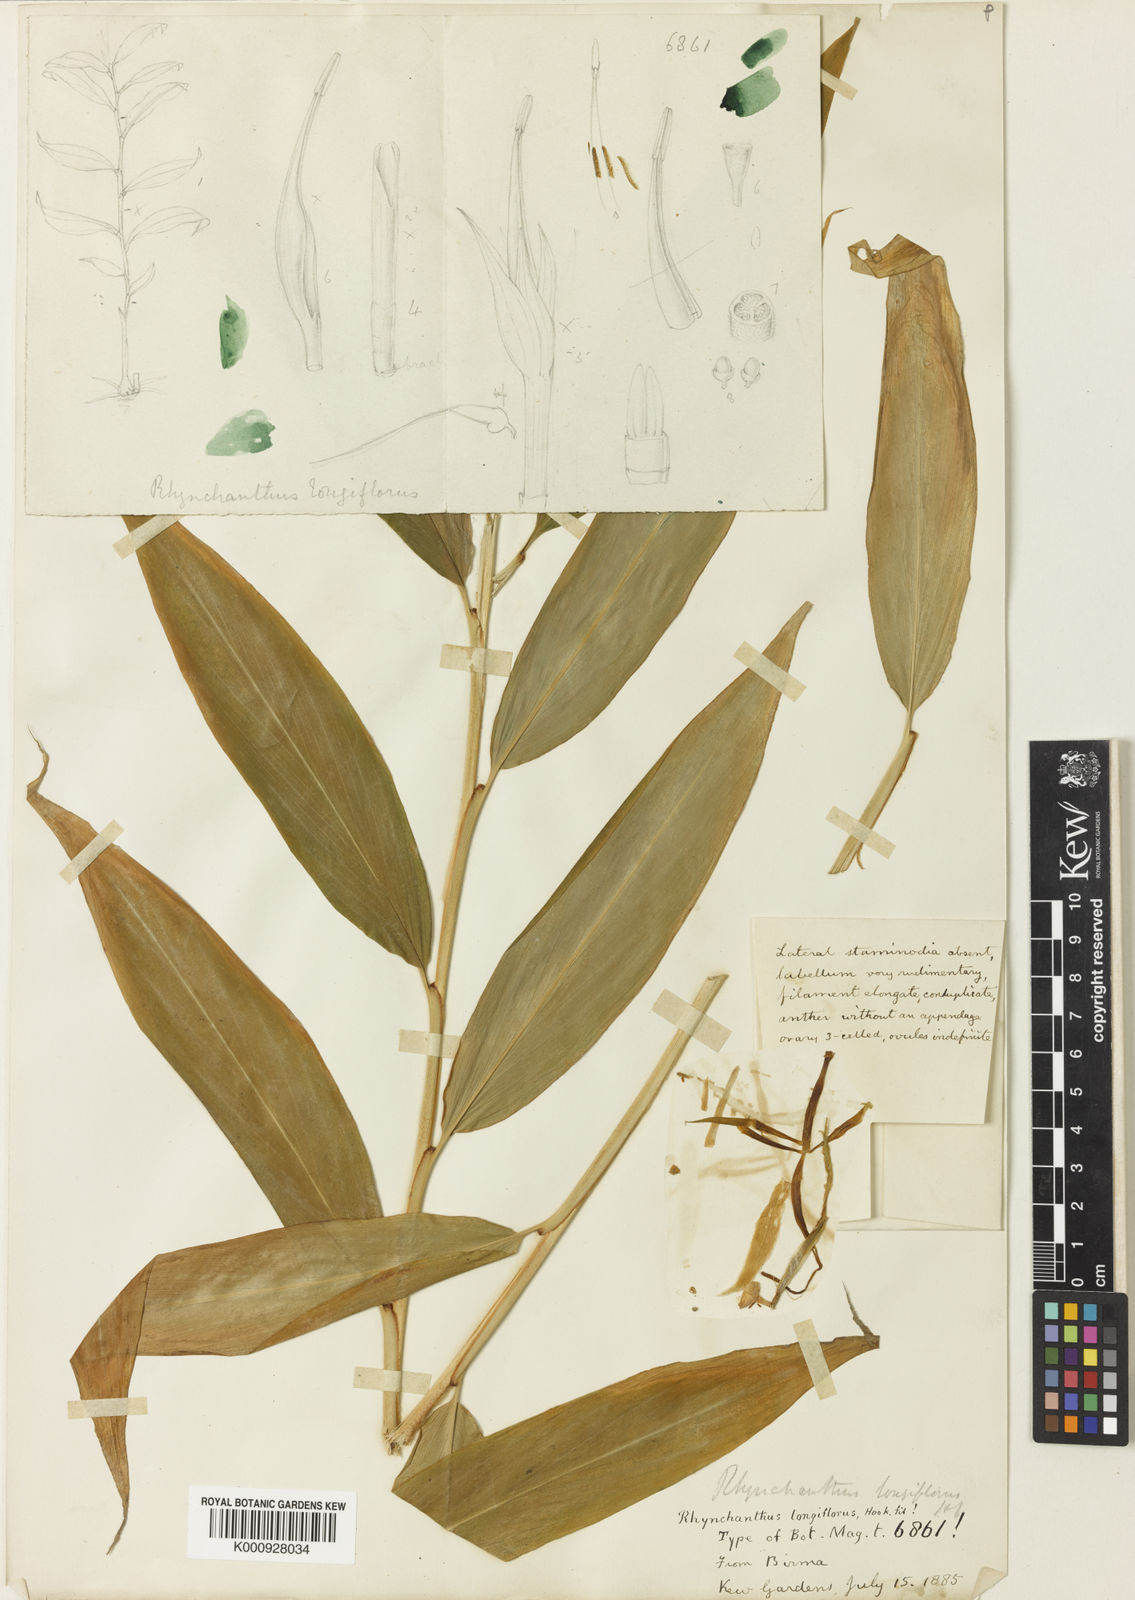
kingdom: Plantae
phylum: Tracheophyta
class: Liliopsida
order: Zingiberales
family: Zingiberaceae
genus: Rhynchanthus
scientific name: Rhynchanthus longiflorus
